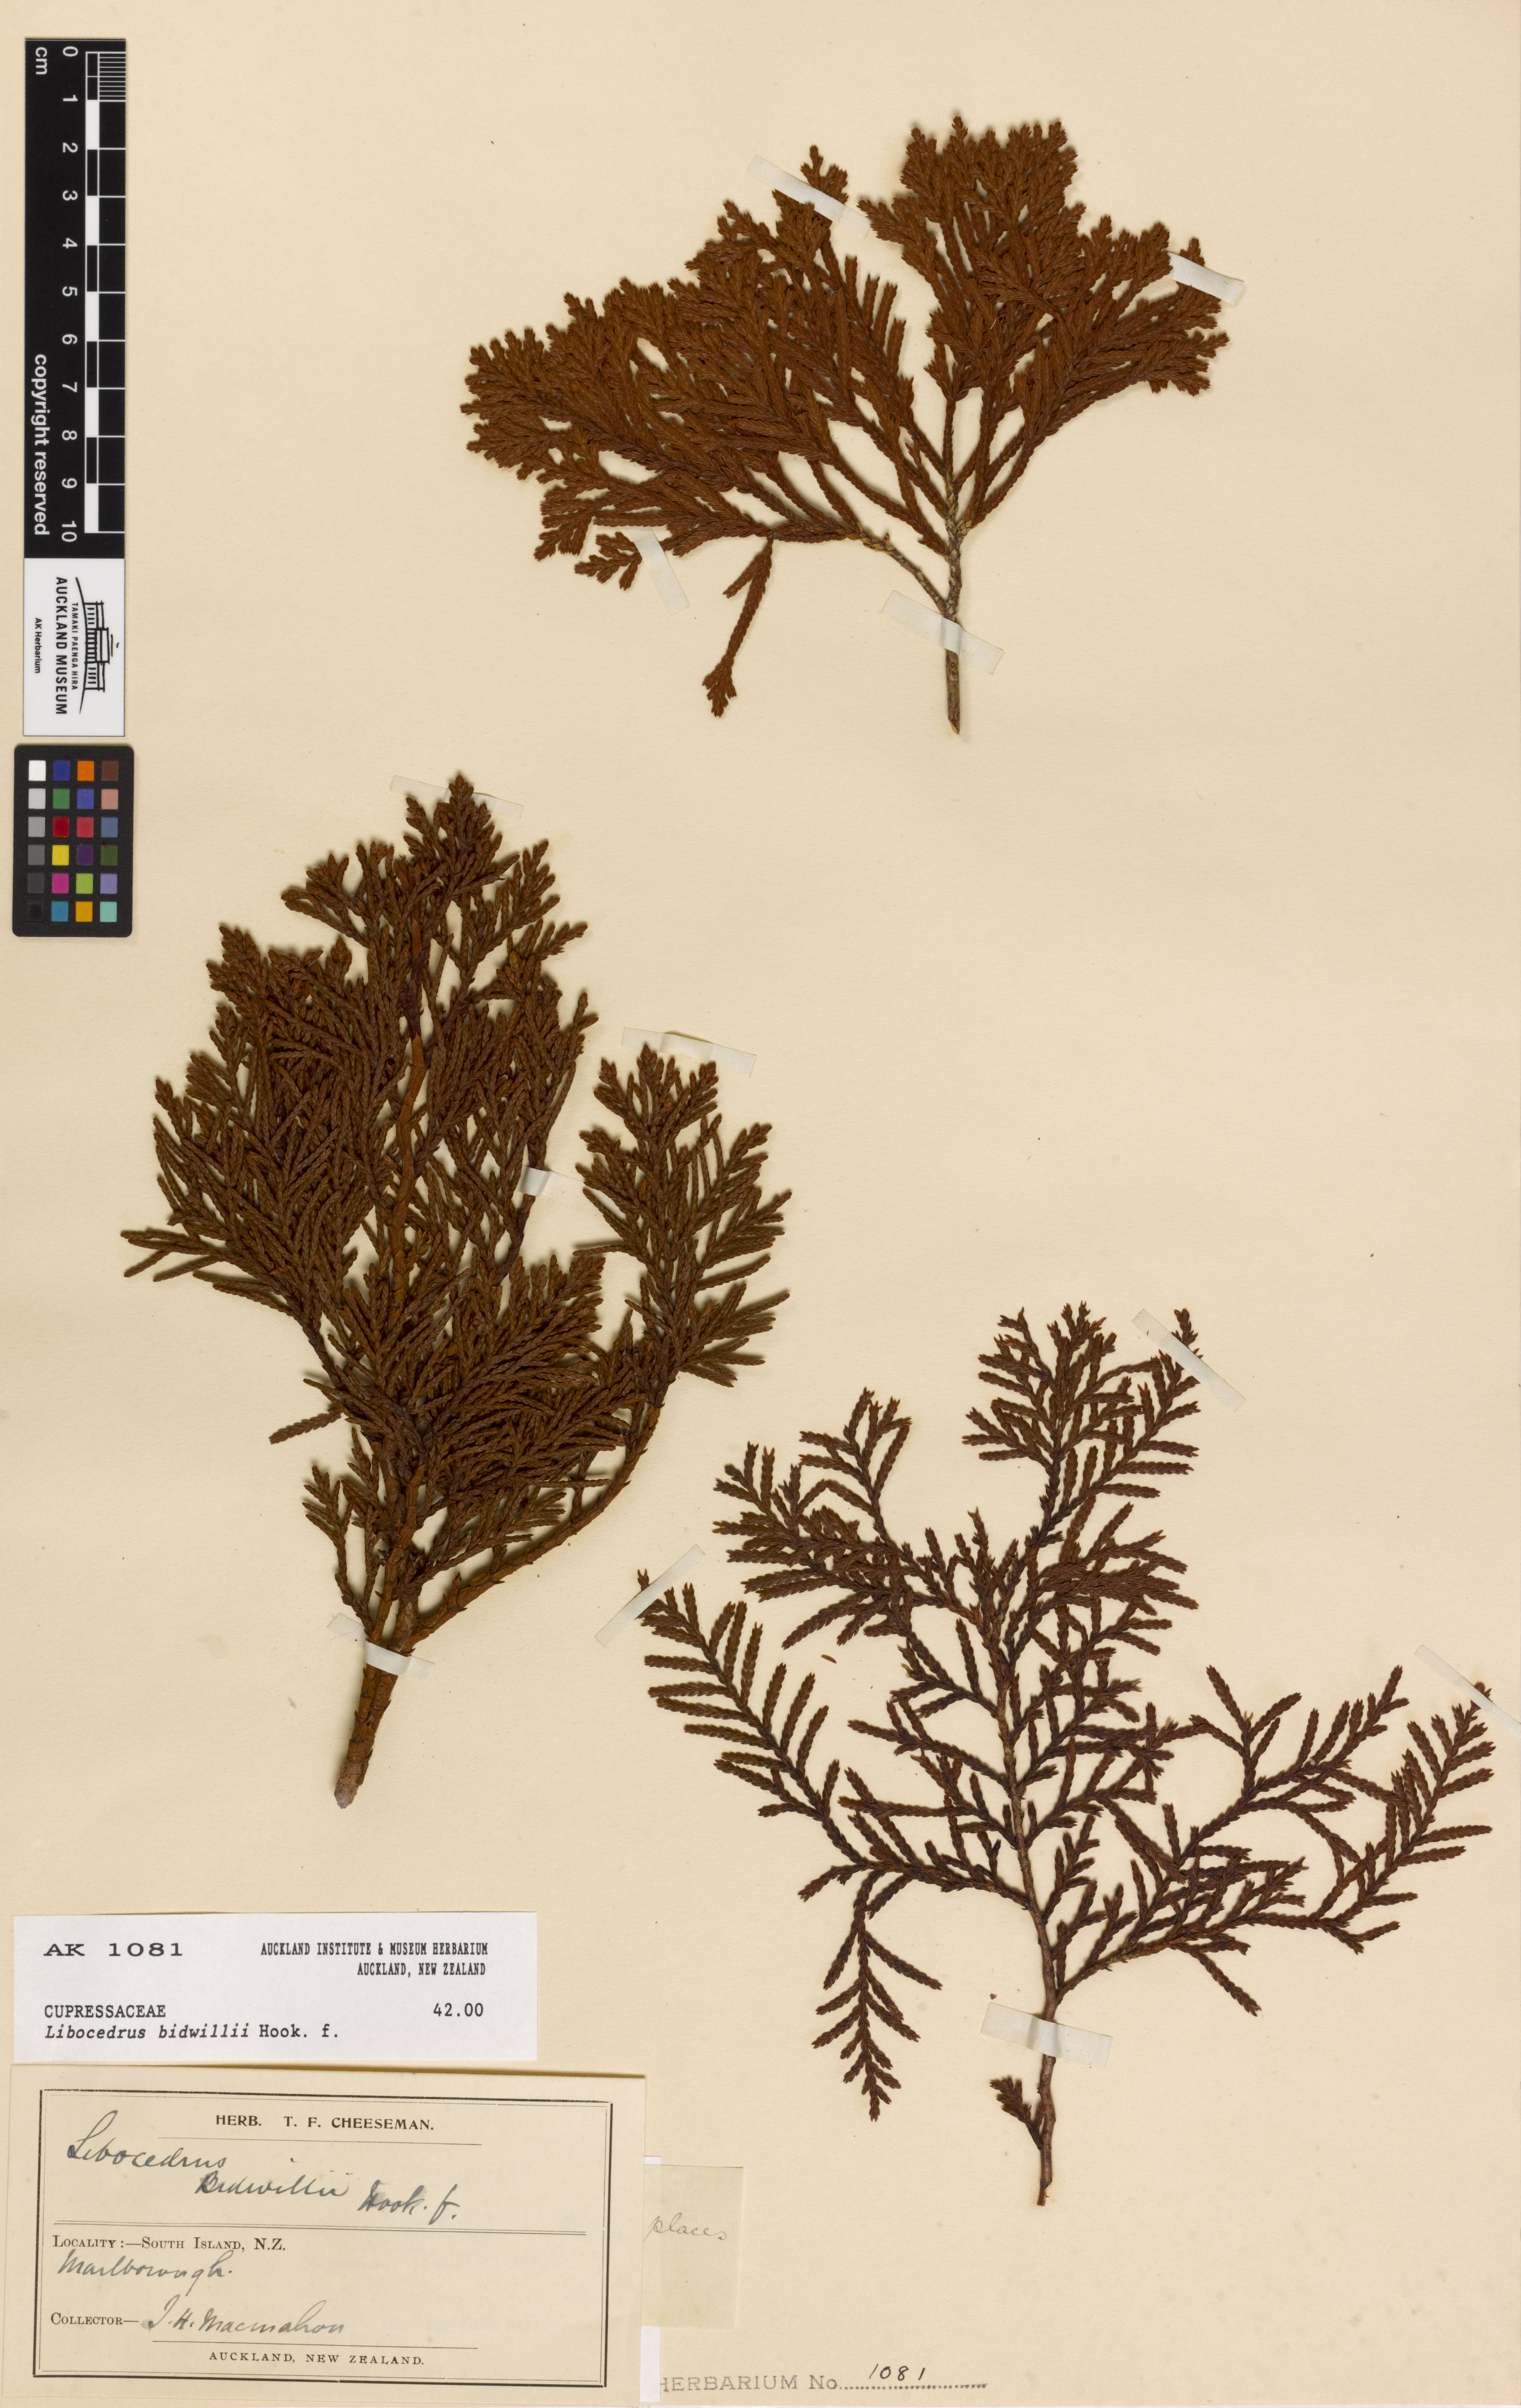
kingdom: Plantae
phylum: Tracheophyta
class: Pinopsida
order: Pinales
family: Cupressaceae
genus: Libocedrus
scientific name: Libocedrus bidwillii
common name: Cedar
